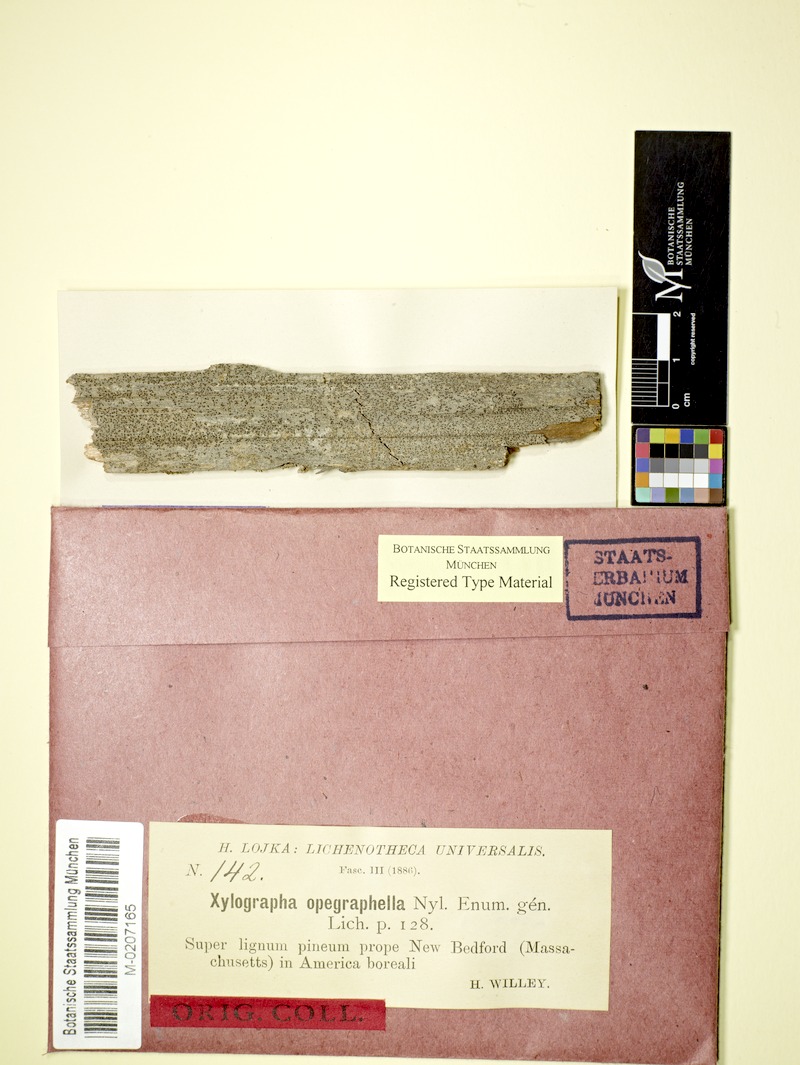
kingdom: Fungi
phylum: Ascomycota
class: Lecanoromycetes
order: Baeomycetales
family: Xylographaceae
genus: Xylographa
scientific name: Xylographa opegraphella
